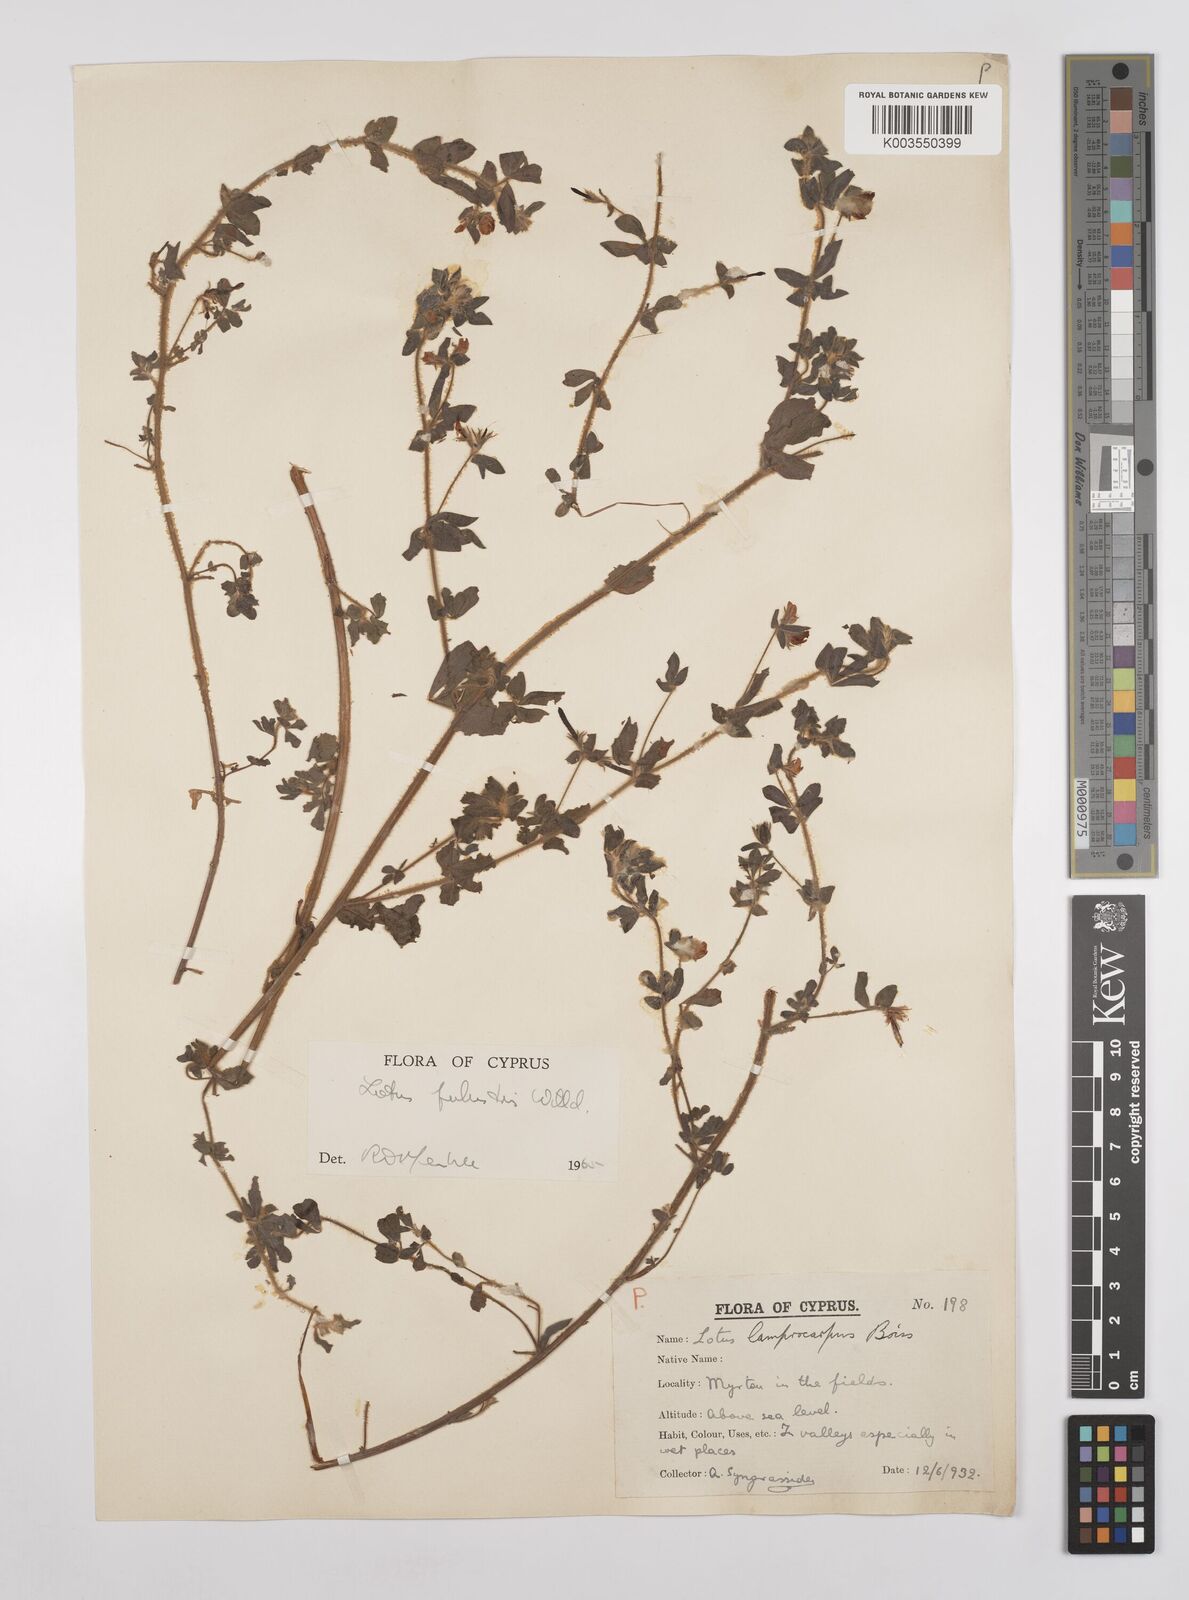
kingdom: Plantae
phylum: Tracheophyta
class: Magnoliopsida
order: Fabales
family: Fabaceae
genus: Lotus
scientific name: Lotus palustris
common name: Large birds-foot trefoil
